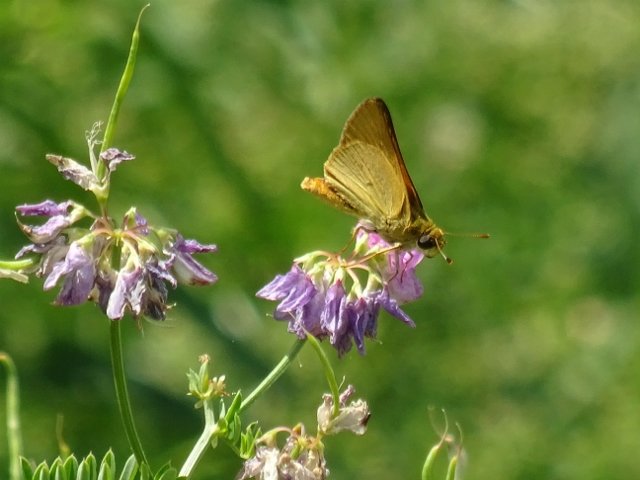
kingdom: Animalia
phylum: Arthropoda
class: Insecta
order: Lepidoptera
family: Hesperiidae
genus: Atrytone
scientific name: Atrytone delaware
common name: Delaware Skipper
